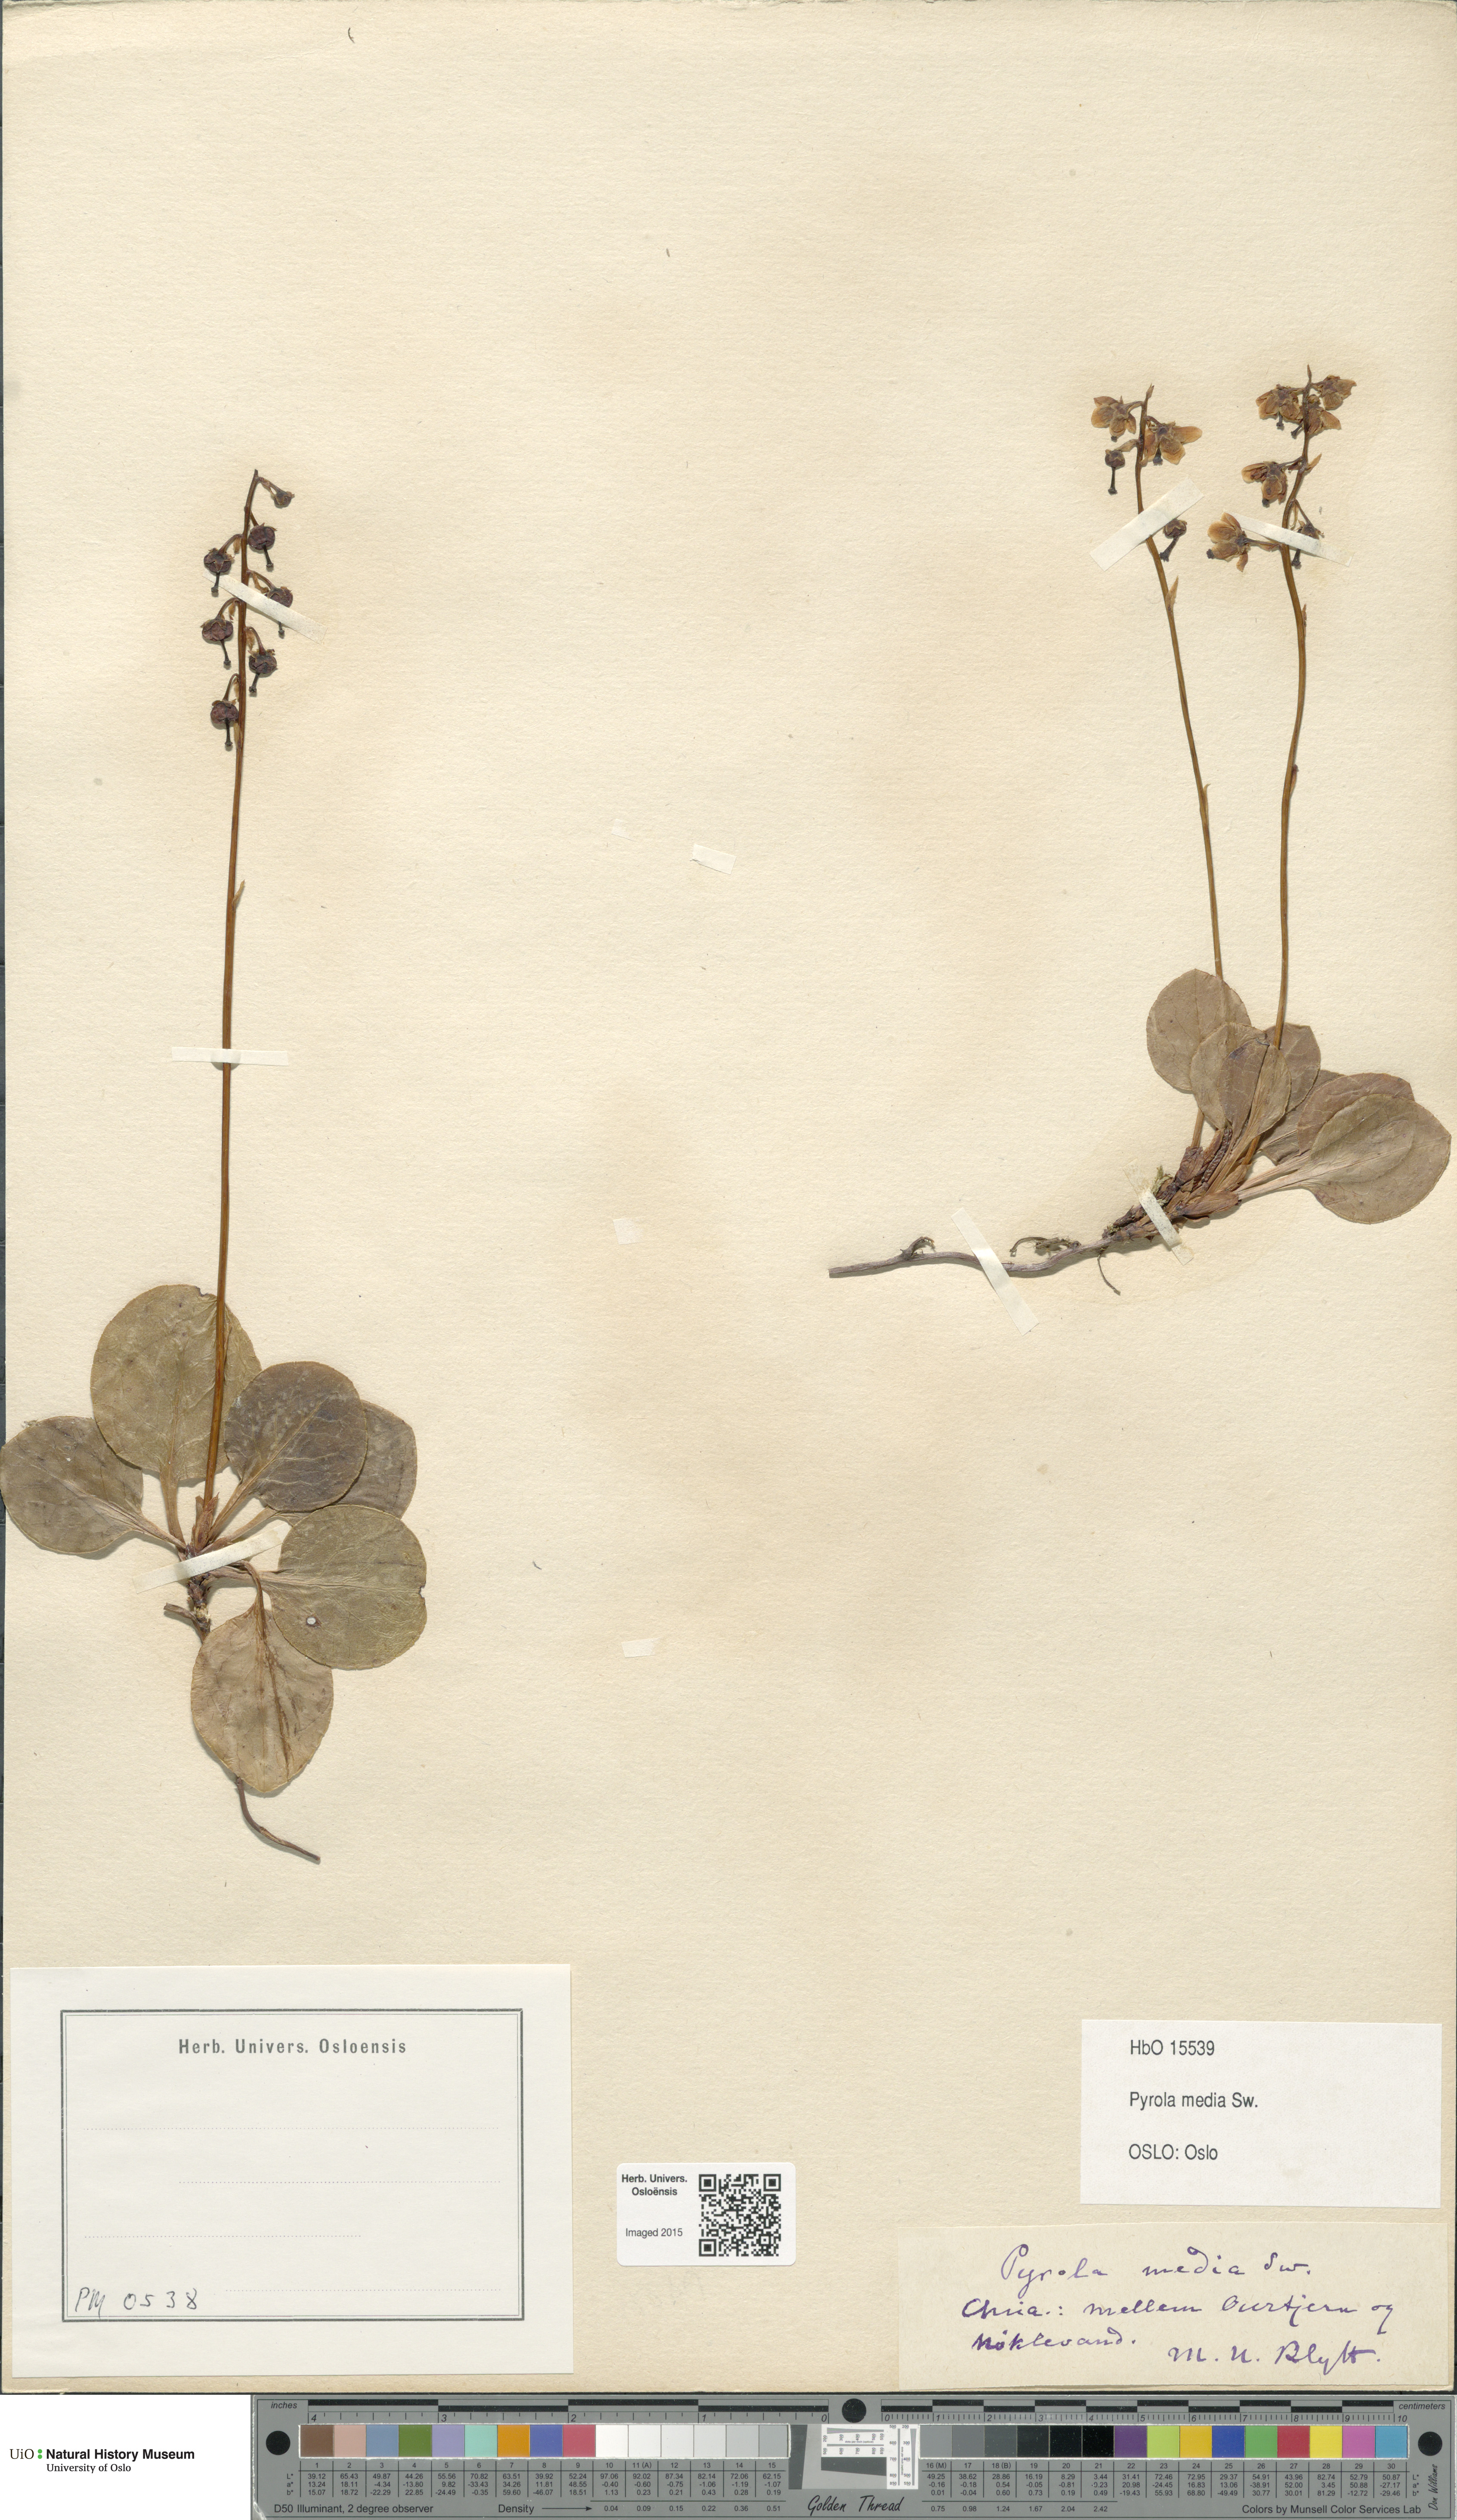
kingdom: Plantae
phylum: Tracheophyta
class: Magnoliopsida
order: Ericales
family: Ericaceae
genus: Pyrola
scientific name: Pyrola media
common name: Intermediate wintergreen
